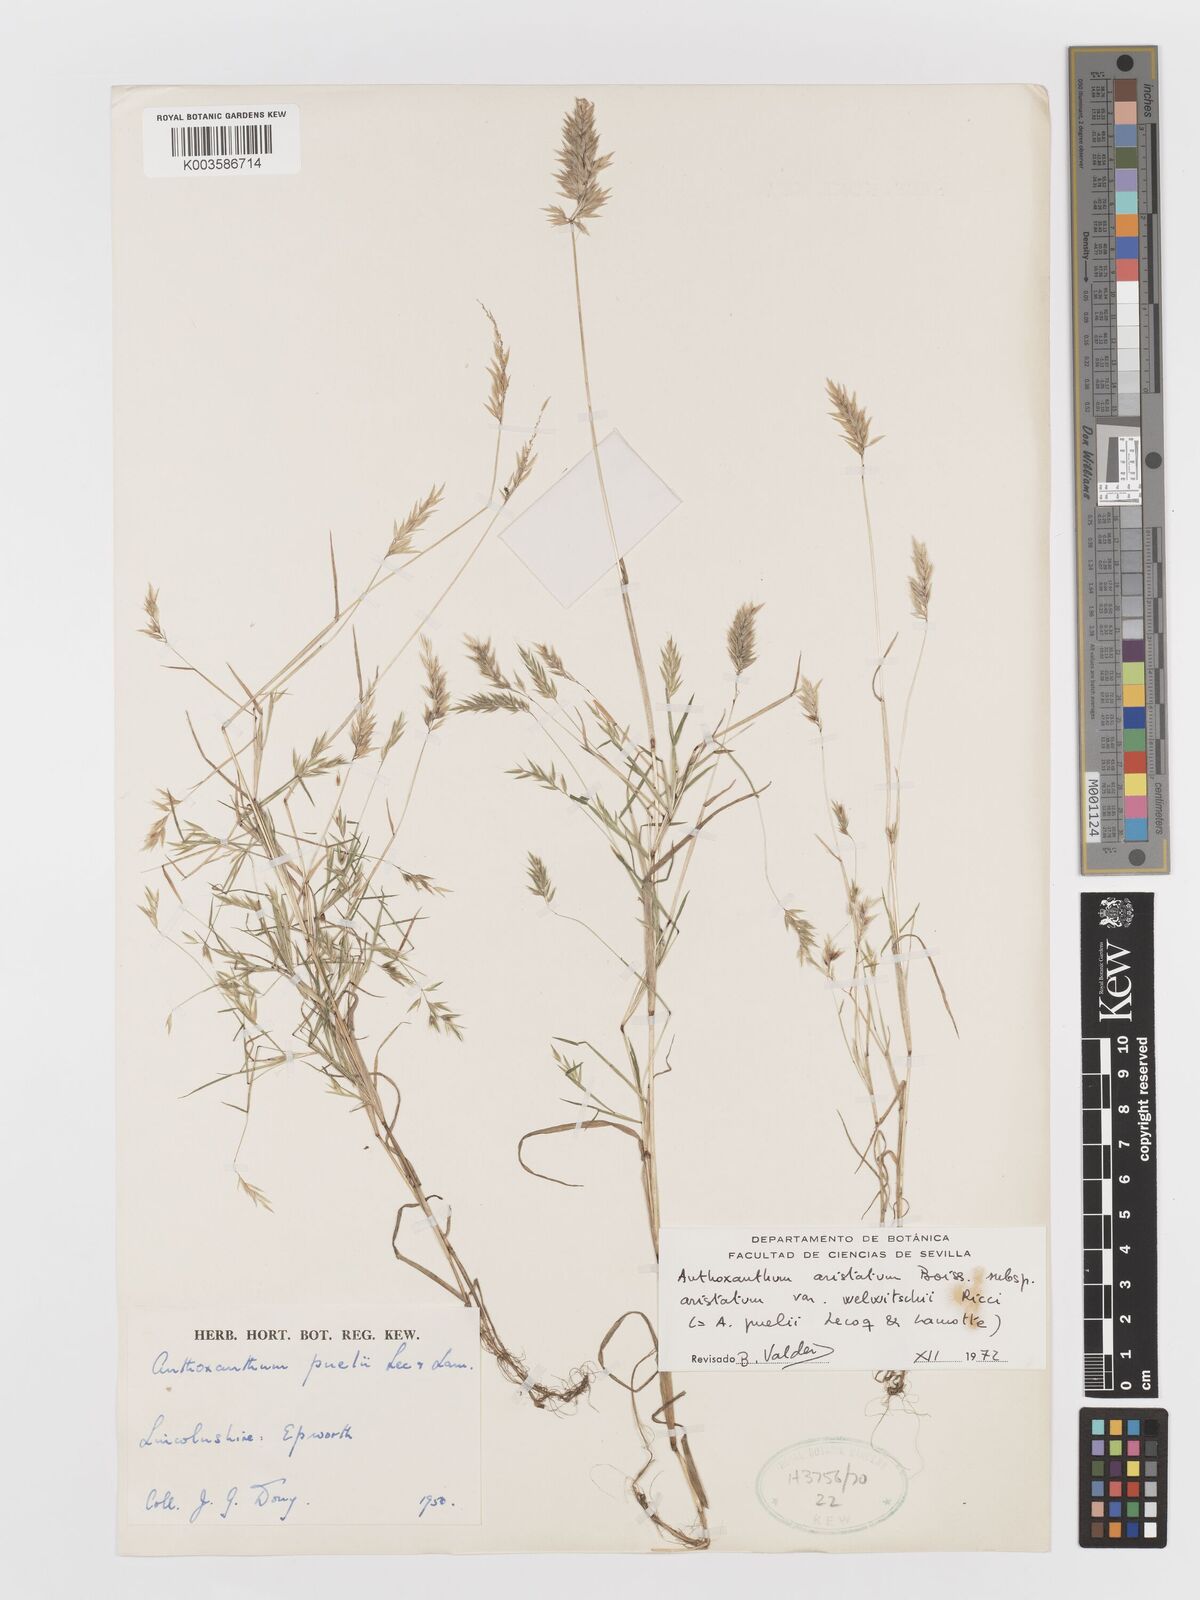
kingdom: Plantae
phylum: Tracheophyta
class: Liliopsida
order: Poales
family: Poaceae
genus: Anthoxanthum
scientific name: Anthoxanthum aristatum
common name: Annual vernal-grass
